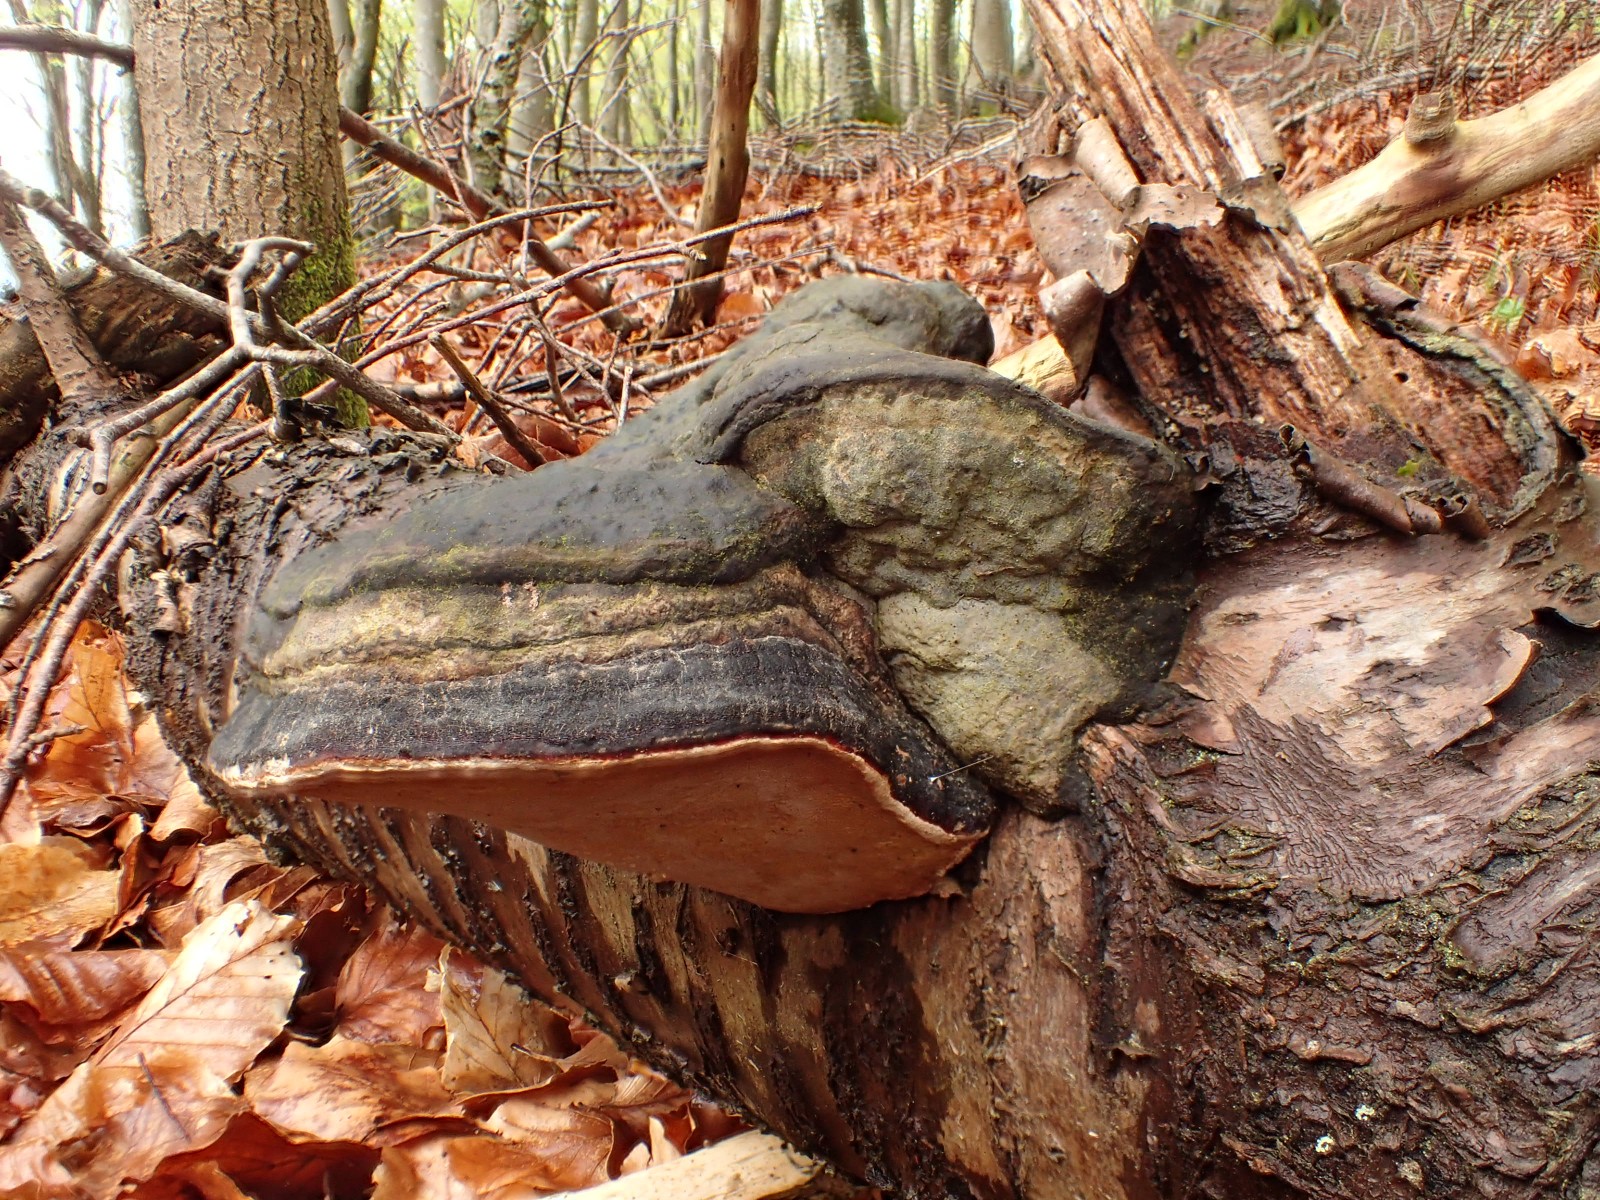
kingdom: Fungi
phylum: Basidiomycota
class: Agaricomycetes
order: Polyporales
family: Fomitopsidaceae
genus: Fomitopsis
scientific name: Fomitopsis pinicola
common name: randbæltet hovporesvamp
